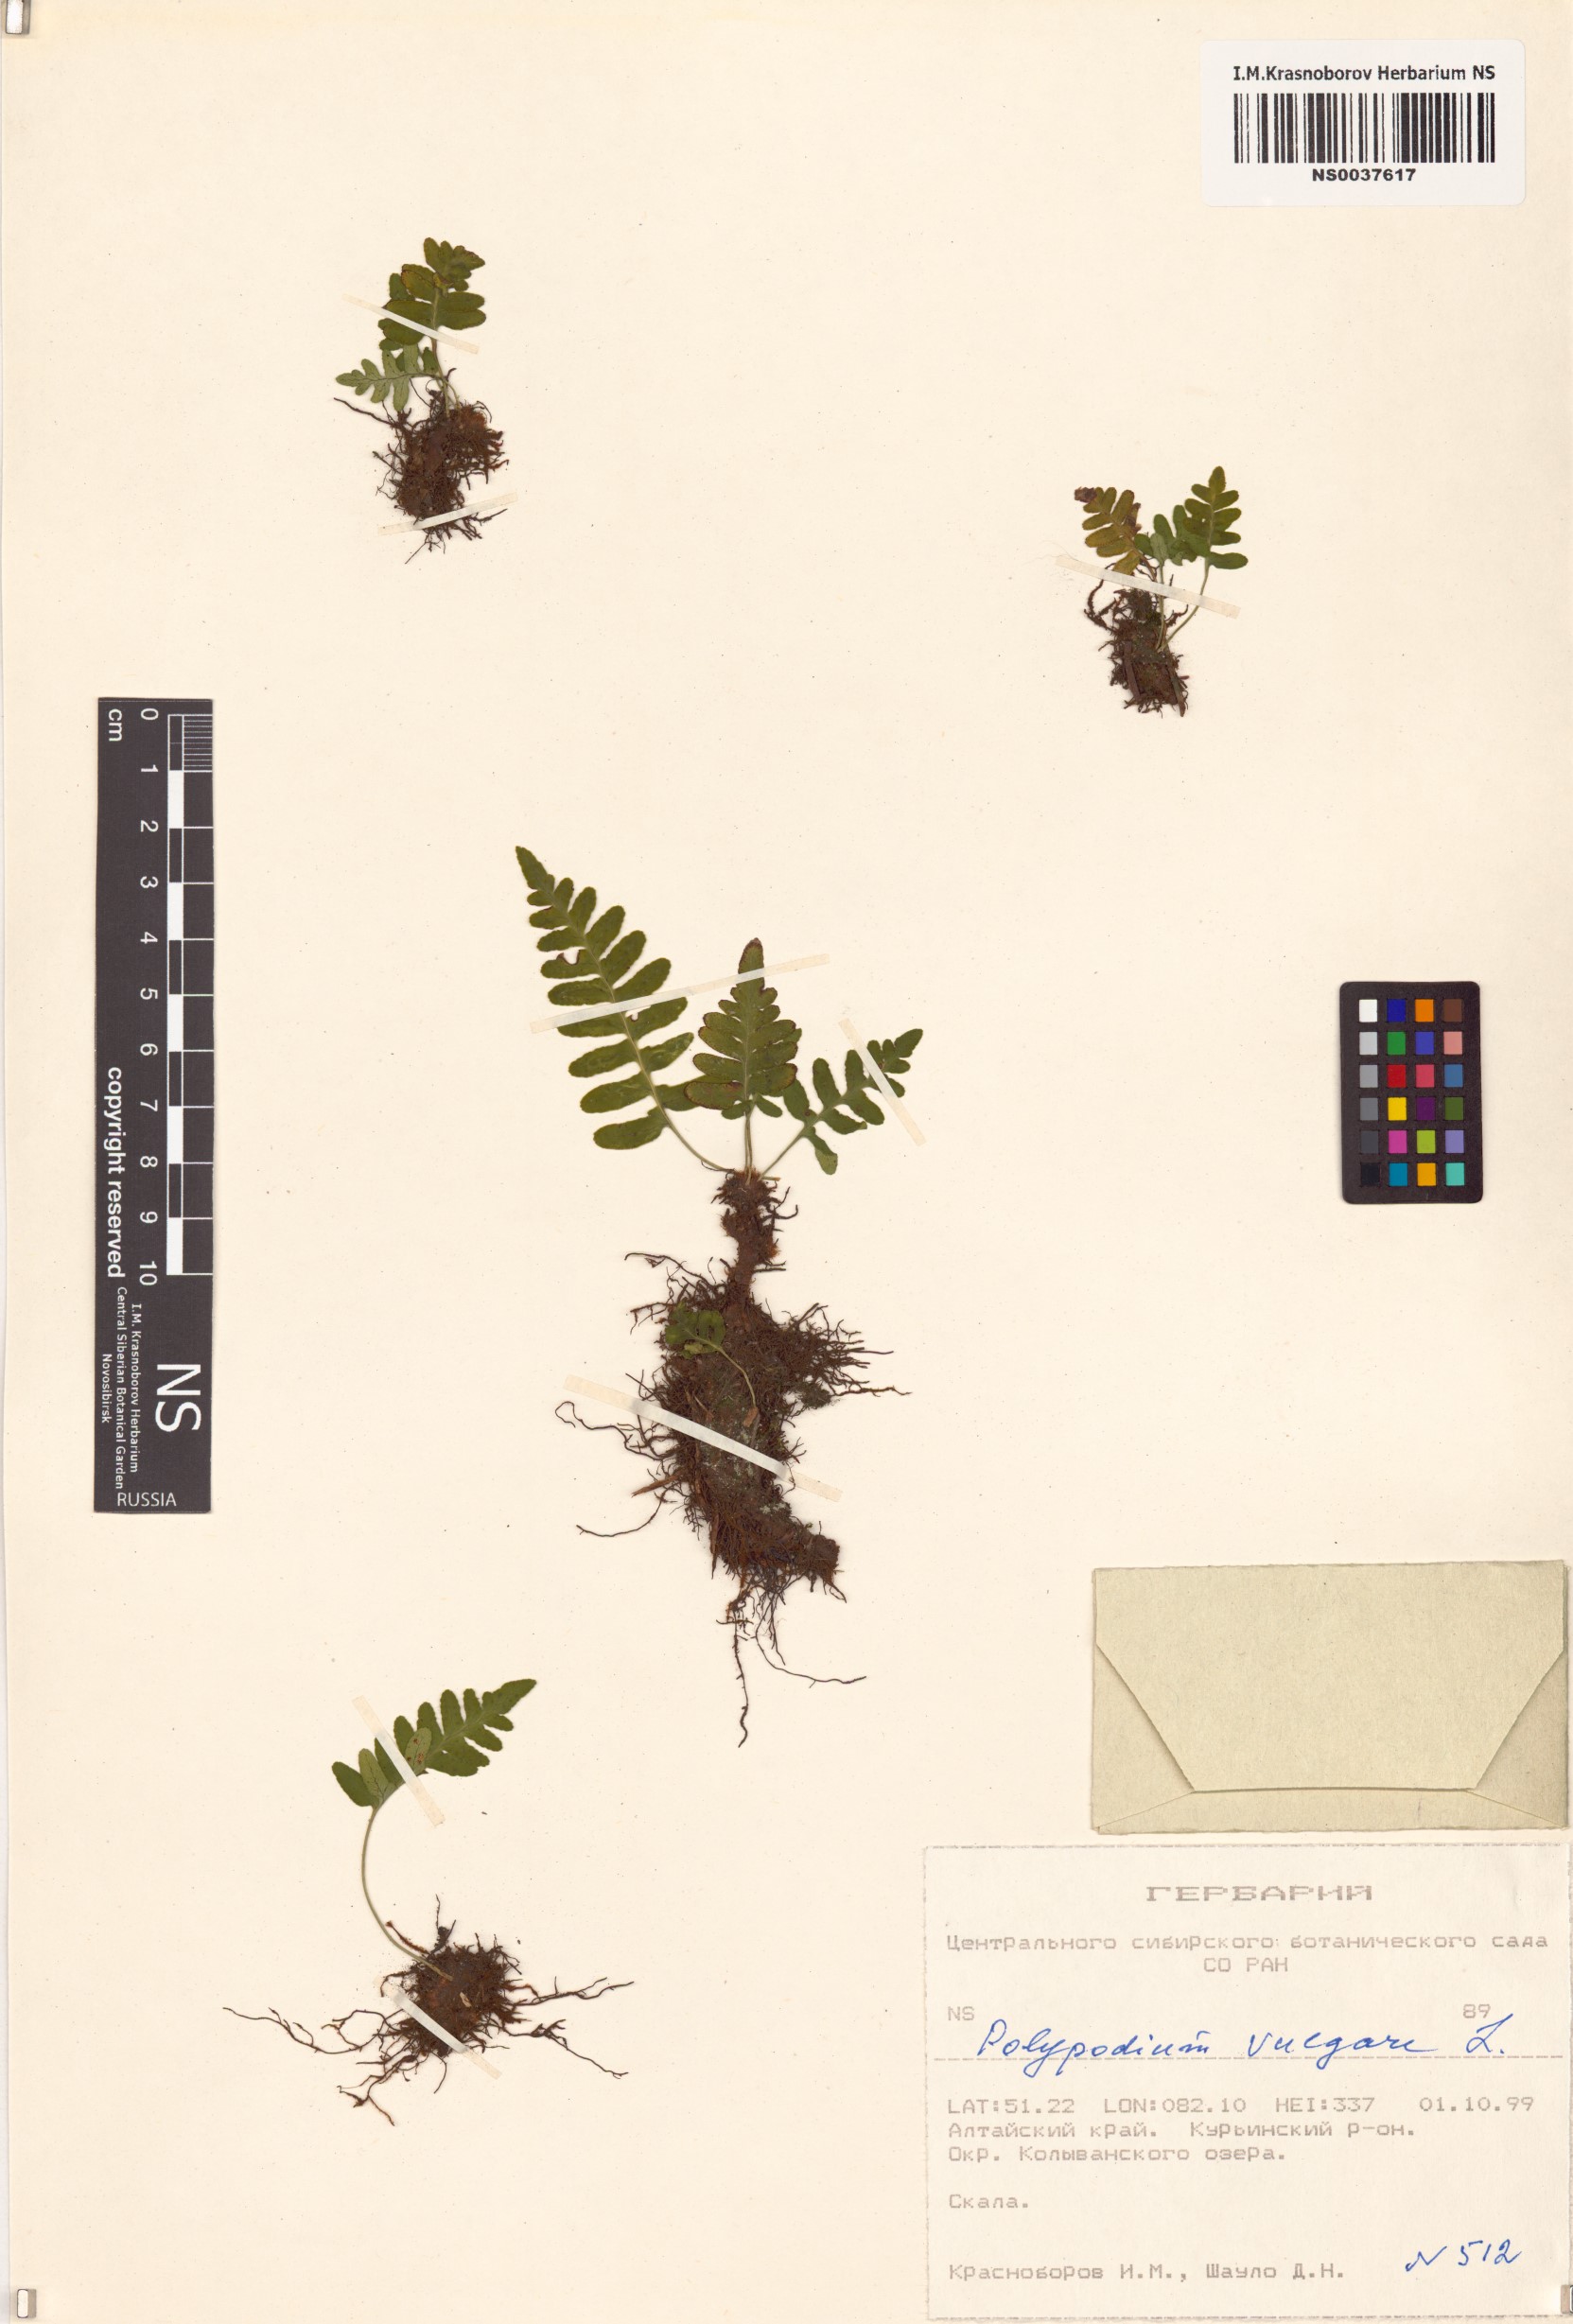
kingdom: Plantae
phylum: Tracheophyta
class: Polypodiopsida
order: Polypodiales
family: Polypodiaceae
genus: Polypodium
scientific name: Polypodium vulgare
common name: Common polypody
